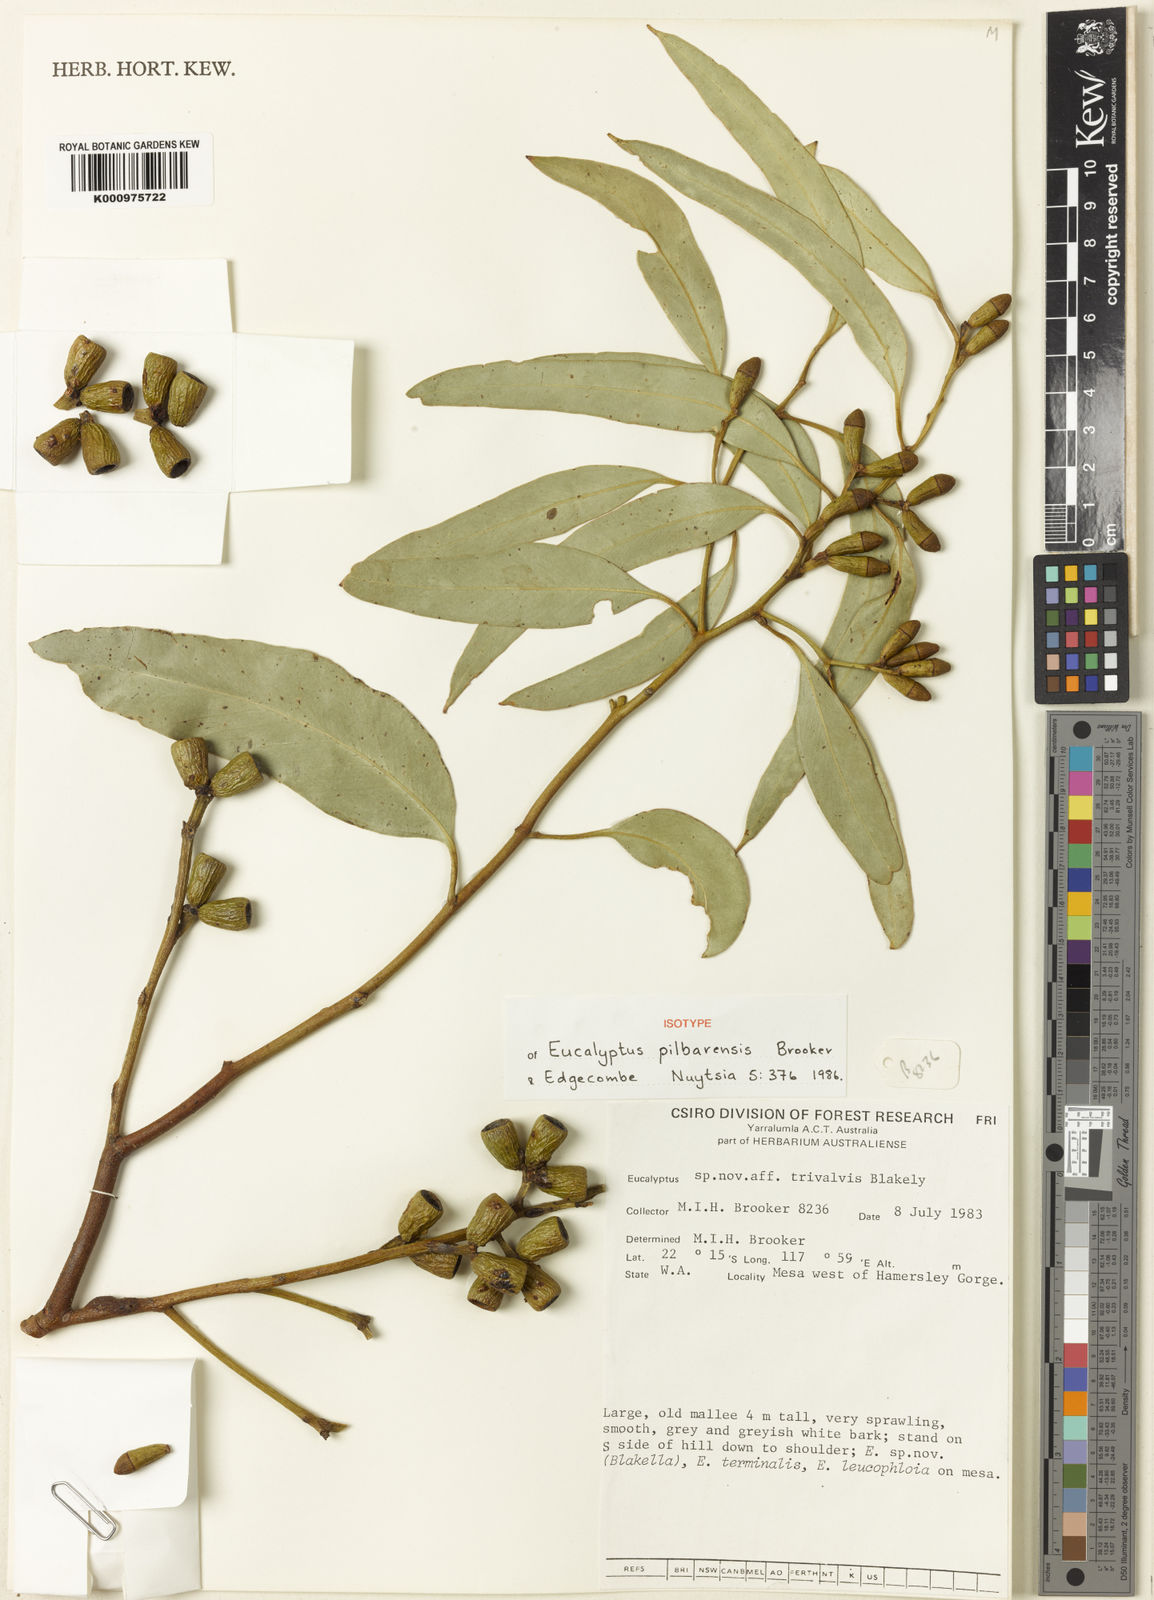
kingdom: Plantae
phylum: Tracheophyta
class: Magnoliopsida
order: Myrtales
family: Myrtaceae
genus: Eucalyptus
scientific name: Eucalyptus pilbarensis
